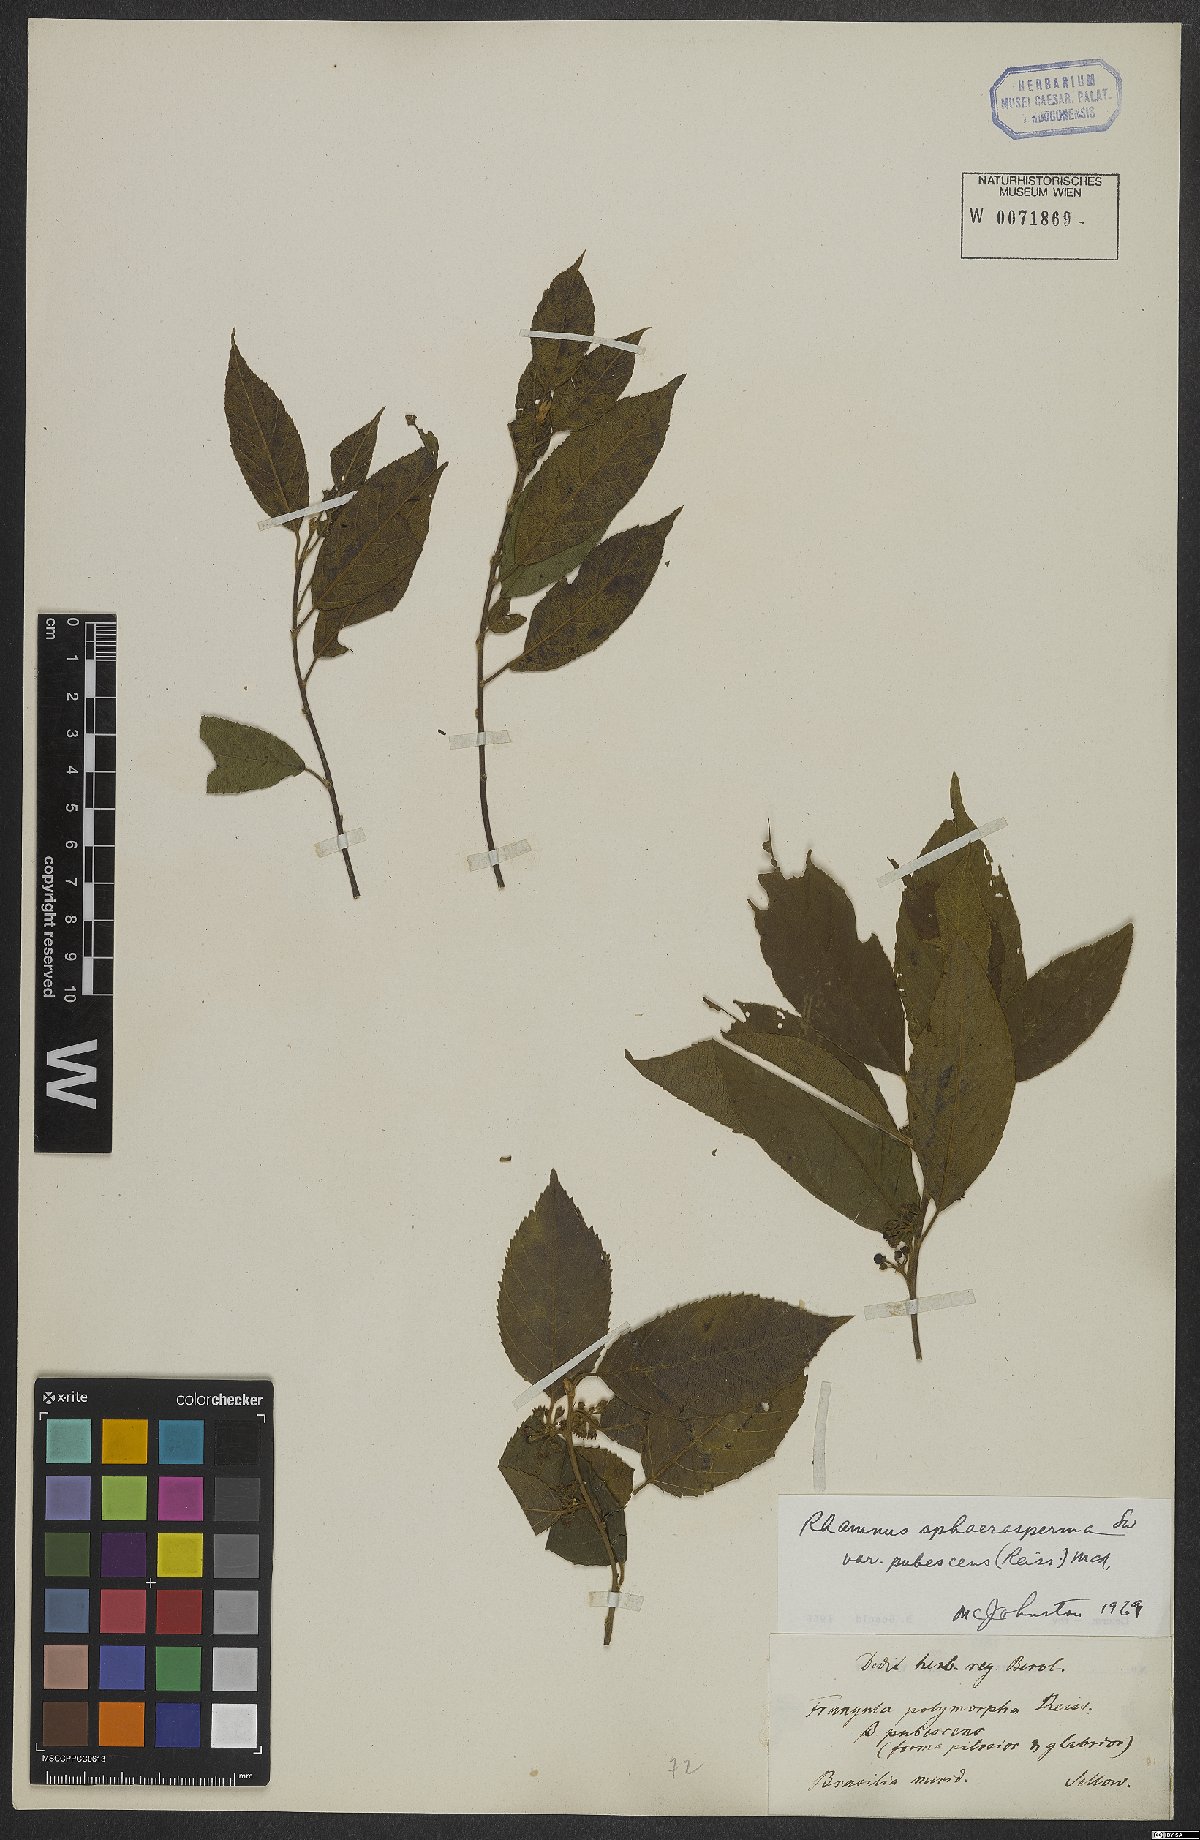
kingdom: Plantae
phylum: Tracheophyta
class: Magnoliopsida
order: Rosales
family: Rhamnaceae
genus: Frangula
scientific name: Frangula sphaerosperma
